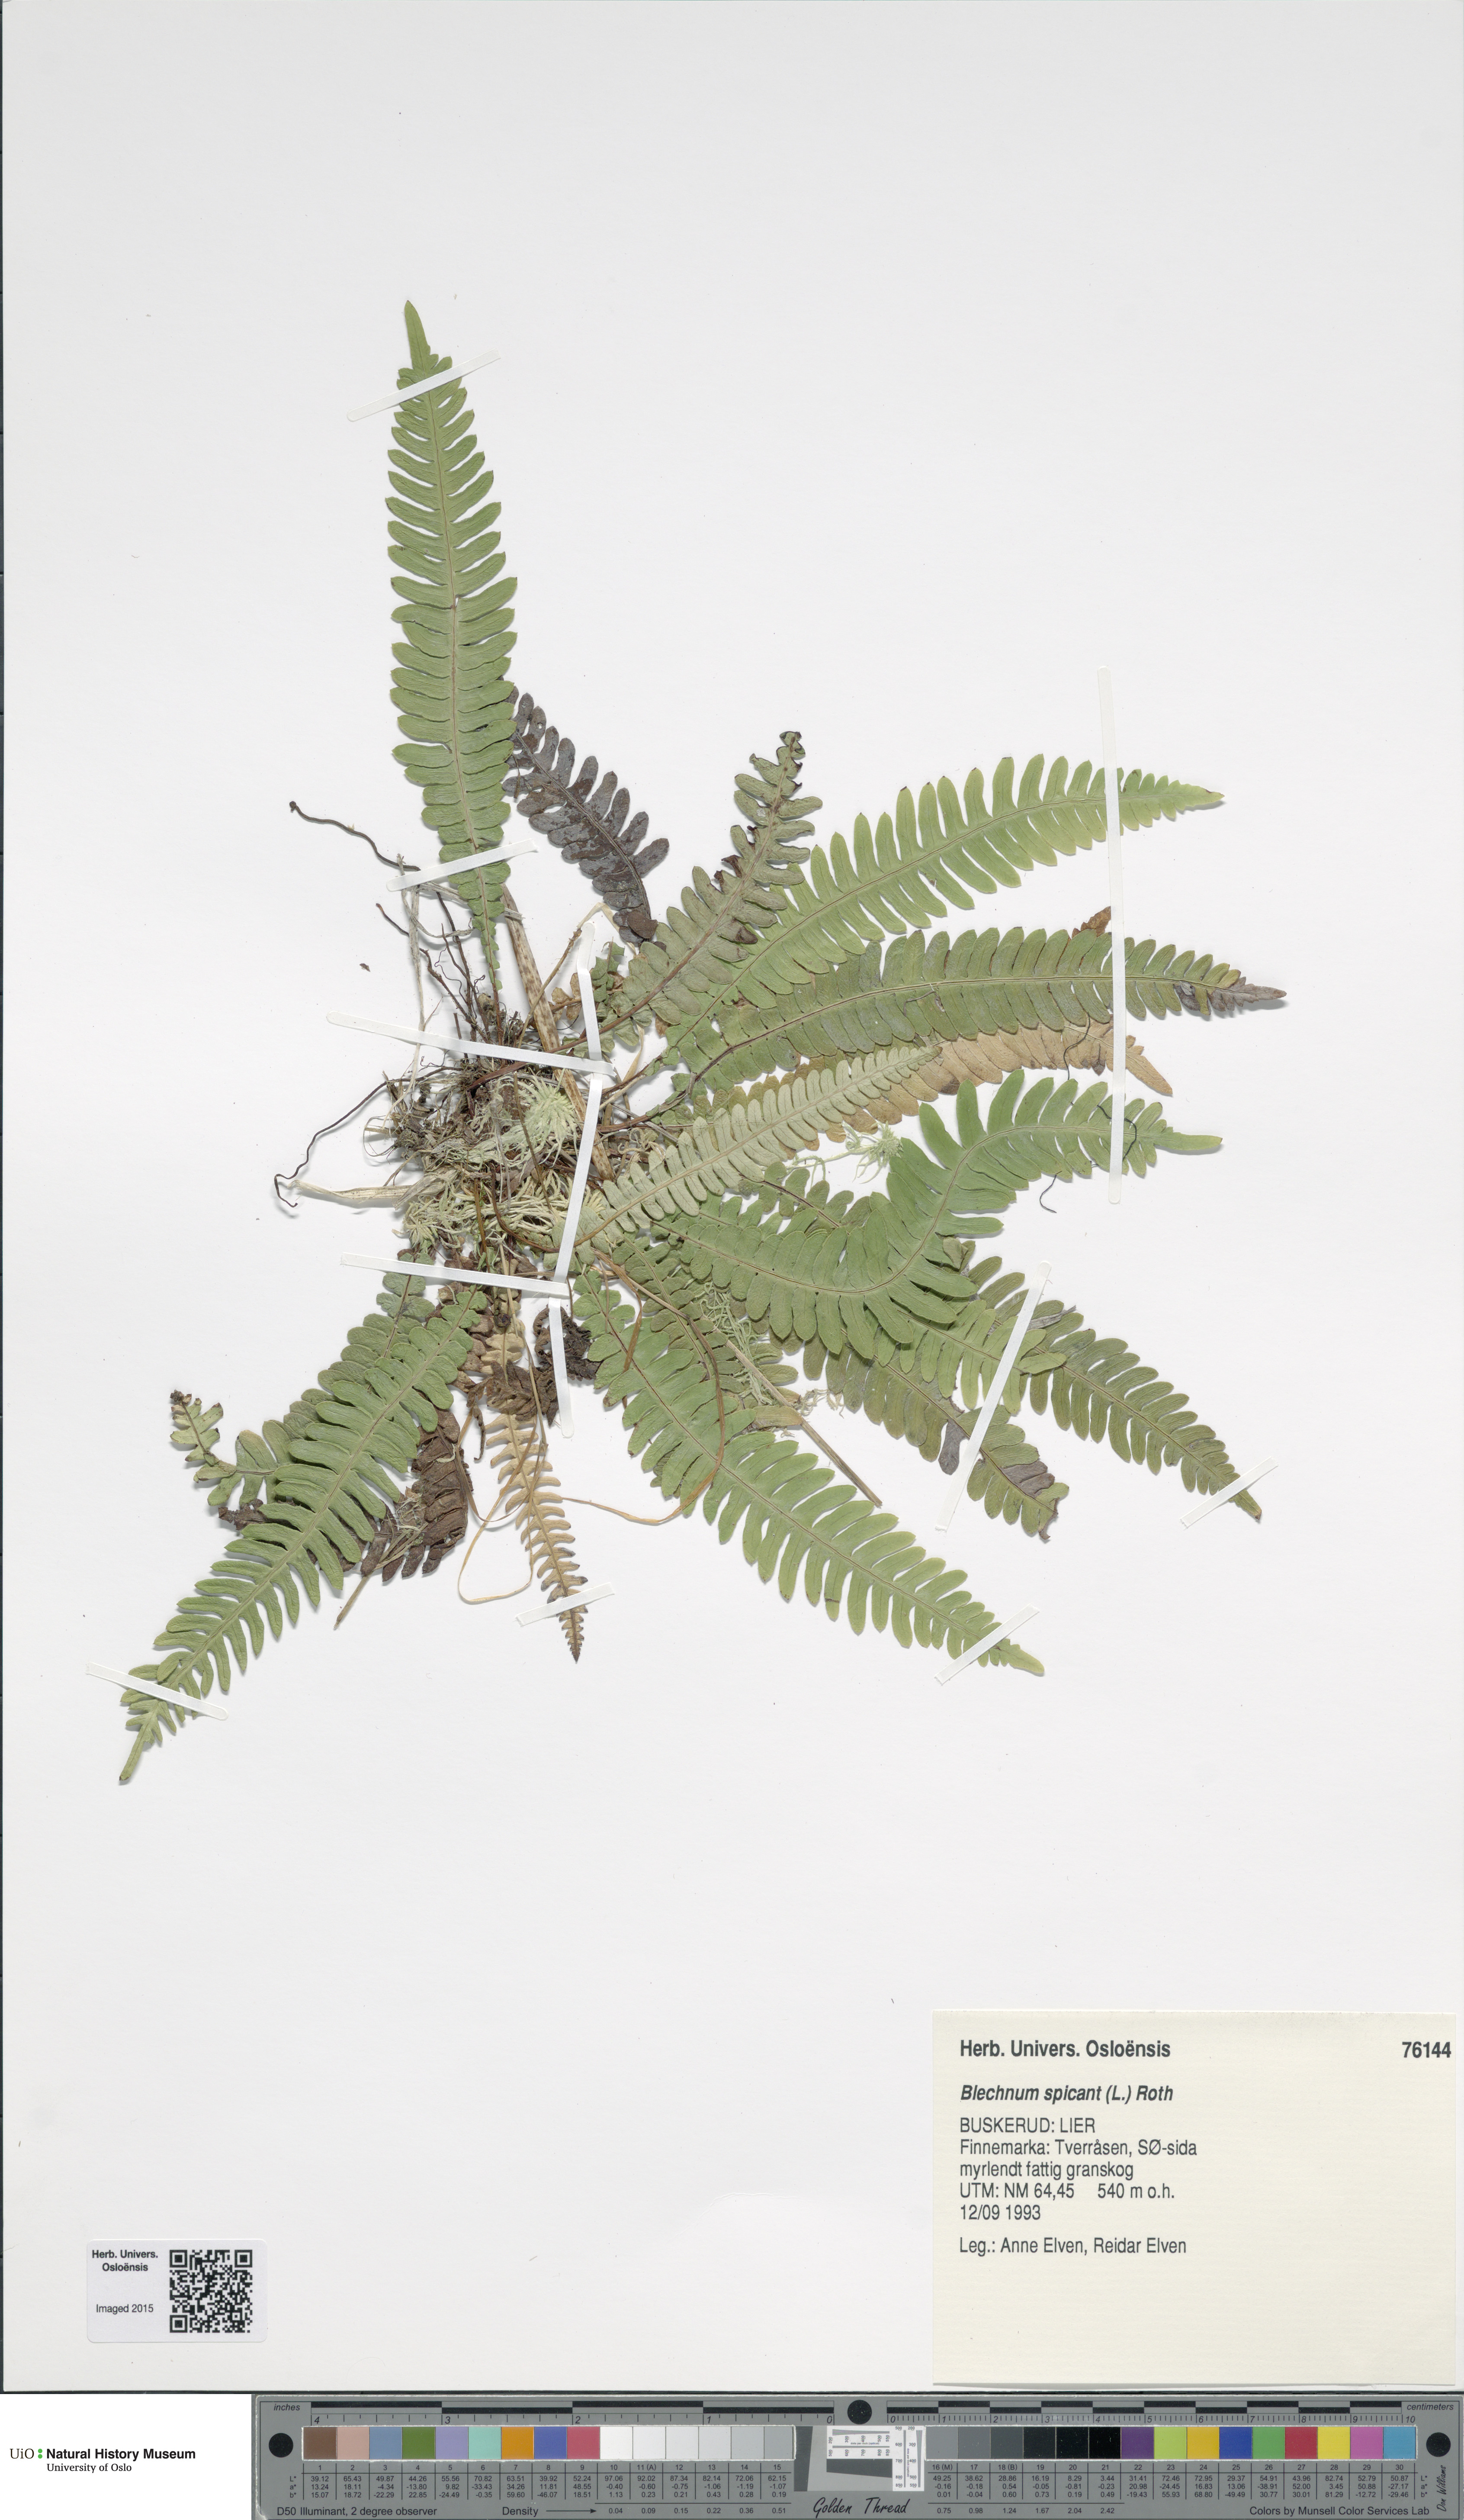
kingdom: Plantae
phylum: Tracheophyta
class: Polypodiopsida
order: Polypodiales
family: Blechnaceae
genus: Struthiopteris
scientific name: Struthiopteris spicant
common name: Deer fern
